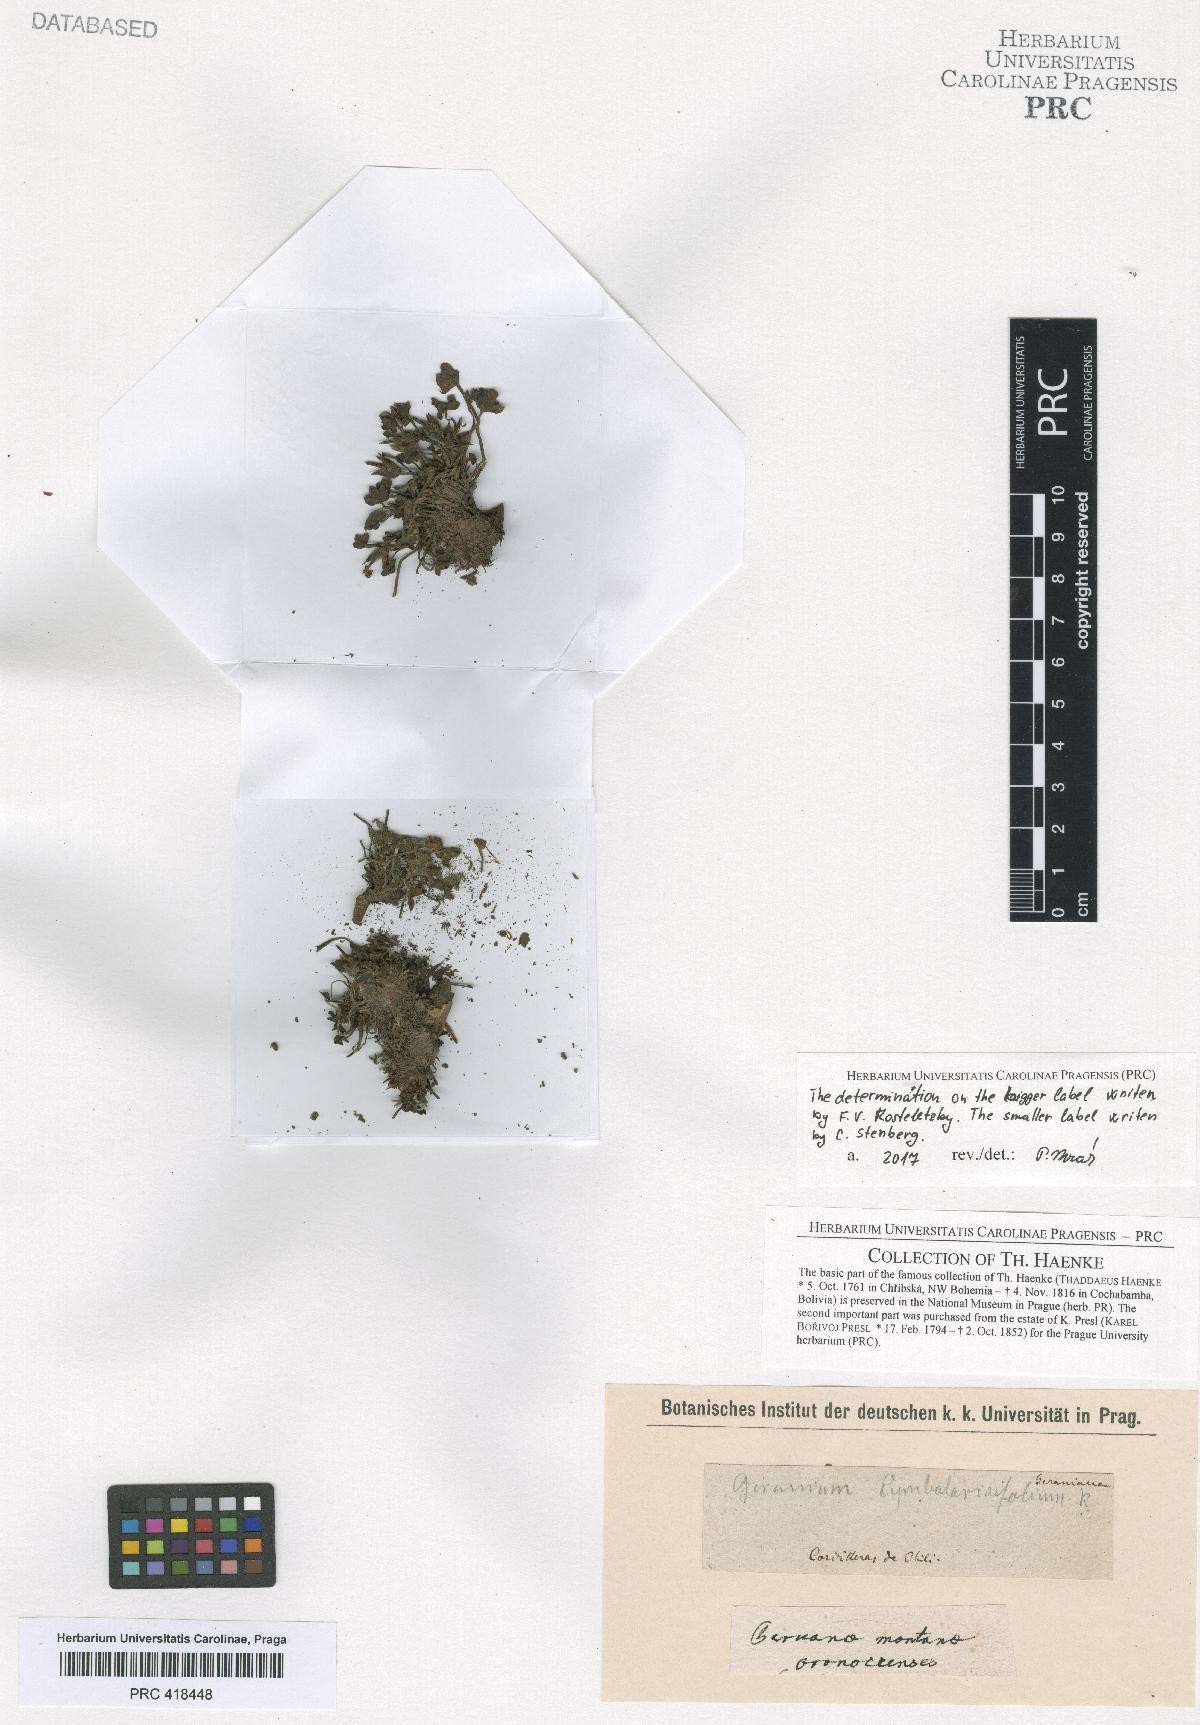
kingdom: Plantae
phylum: Tracheophyta
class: Magnoliopsida
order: Geraniales
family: Geraniaceae
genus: Geranium
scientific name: Geranium sessiliflorum
